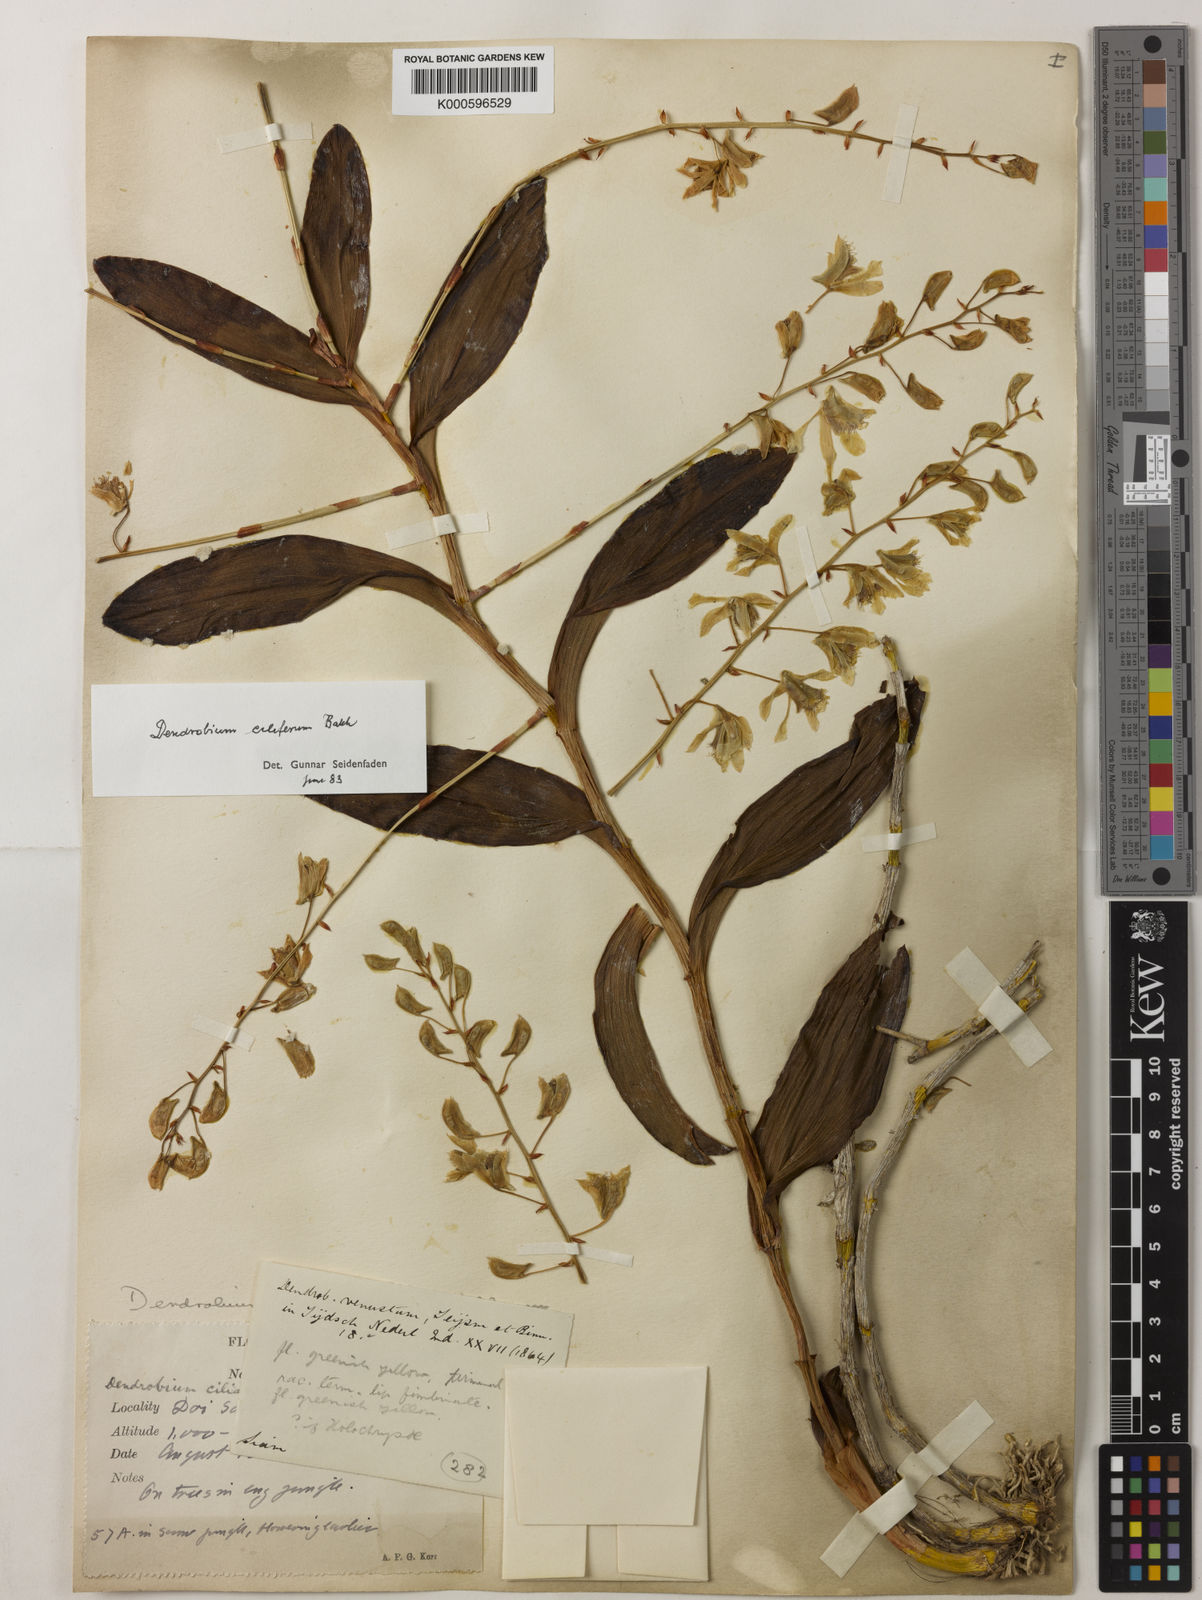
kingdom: Plantae
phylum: Tracheophyta
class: Liliopsida
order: Asparagales
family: Orchidaceae
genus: Dendrobium
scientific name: Dendrobium venustum
